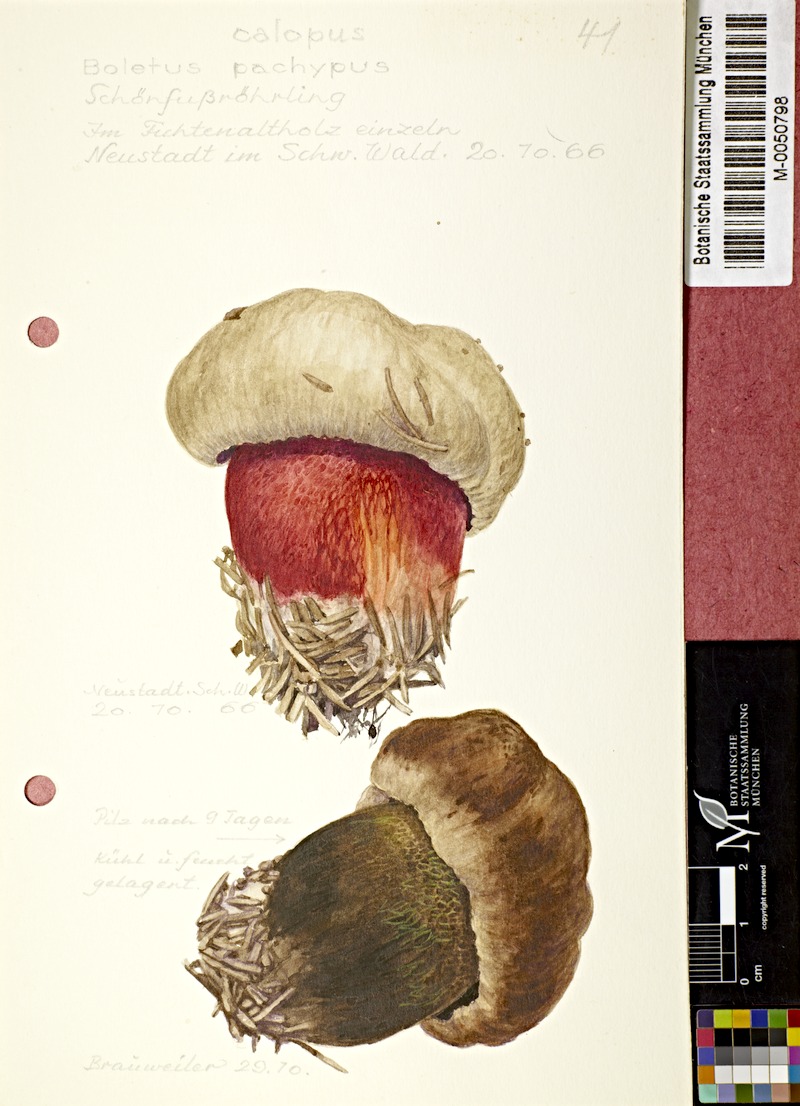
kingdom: Fungi
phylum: Basidiomycota
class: Agaricomycetes
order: Boletales
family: Boletaceae
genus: Caloboletus
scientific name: Caloboletus calopus
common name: Bitter beech bolete
